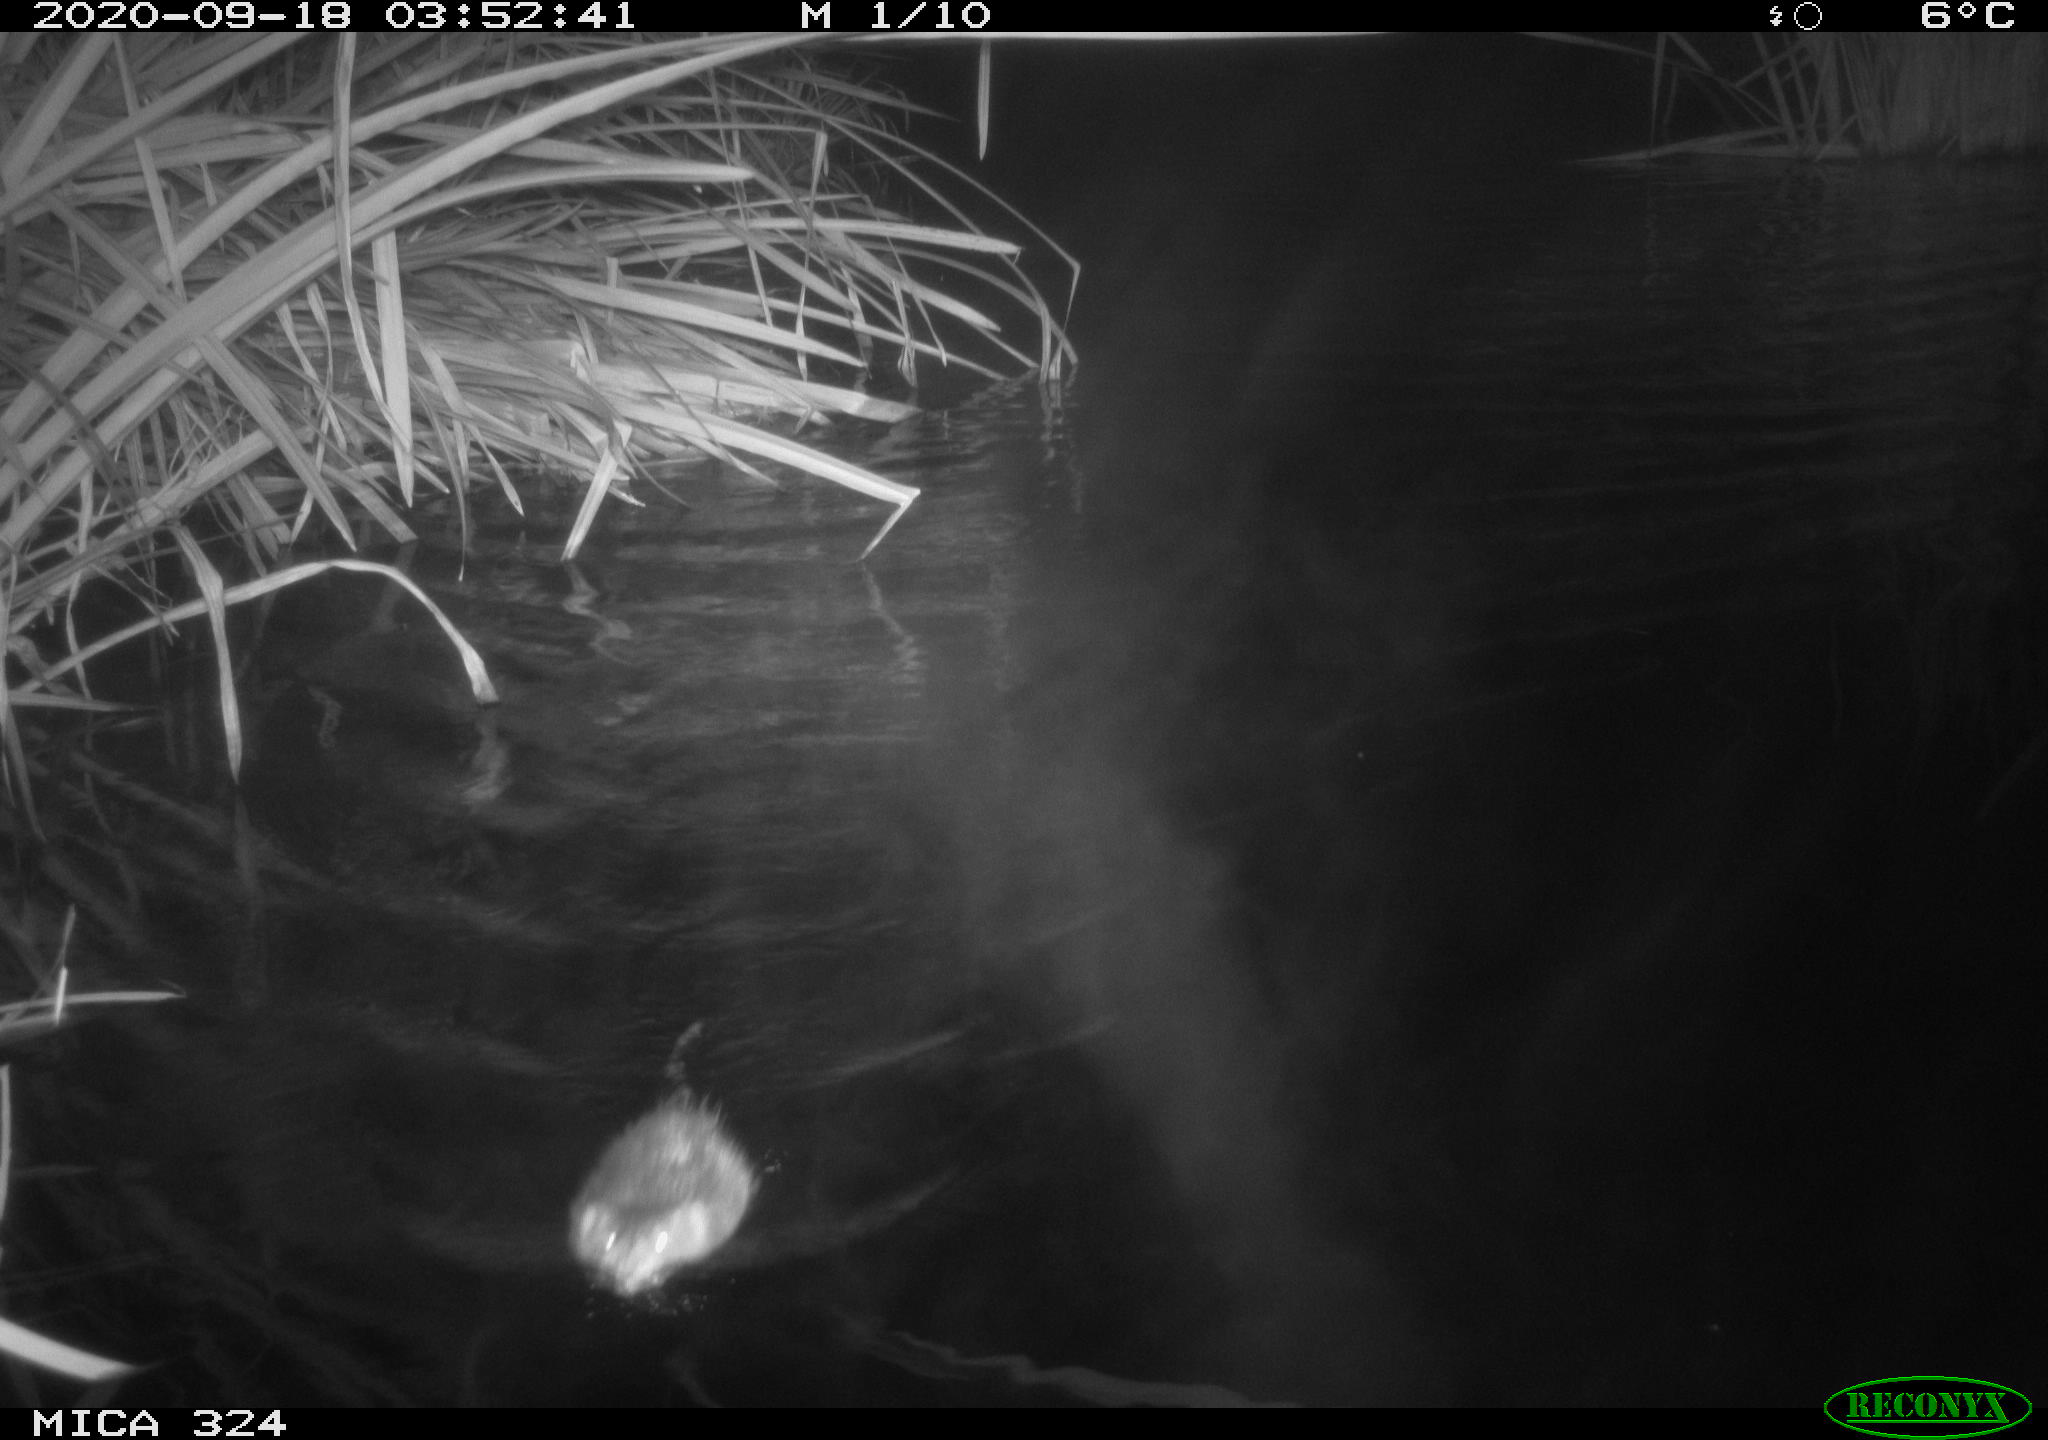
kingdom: Animalia
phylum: Chordata
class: Mammalia
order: Rodentia
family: Cricetidae
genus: Ondatra
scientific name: Ondatra zibethicus
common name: Muskrat
